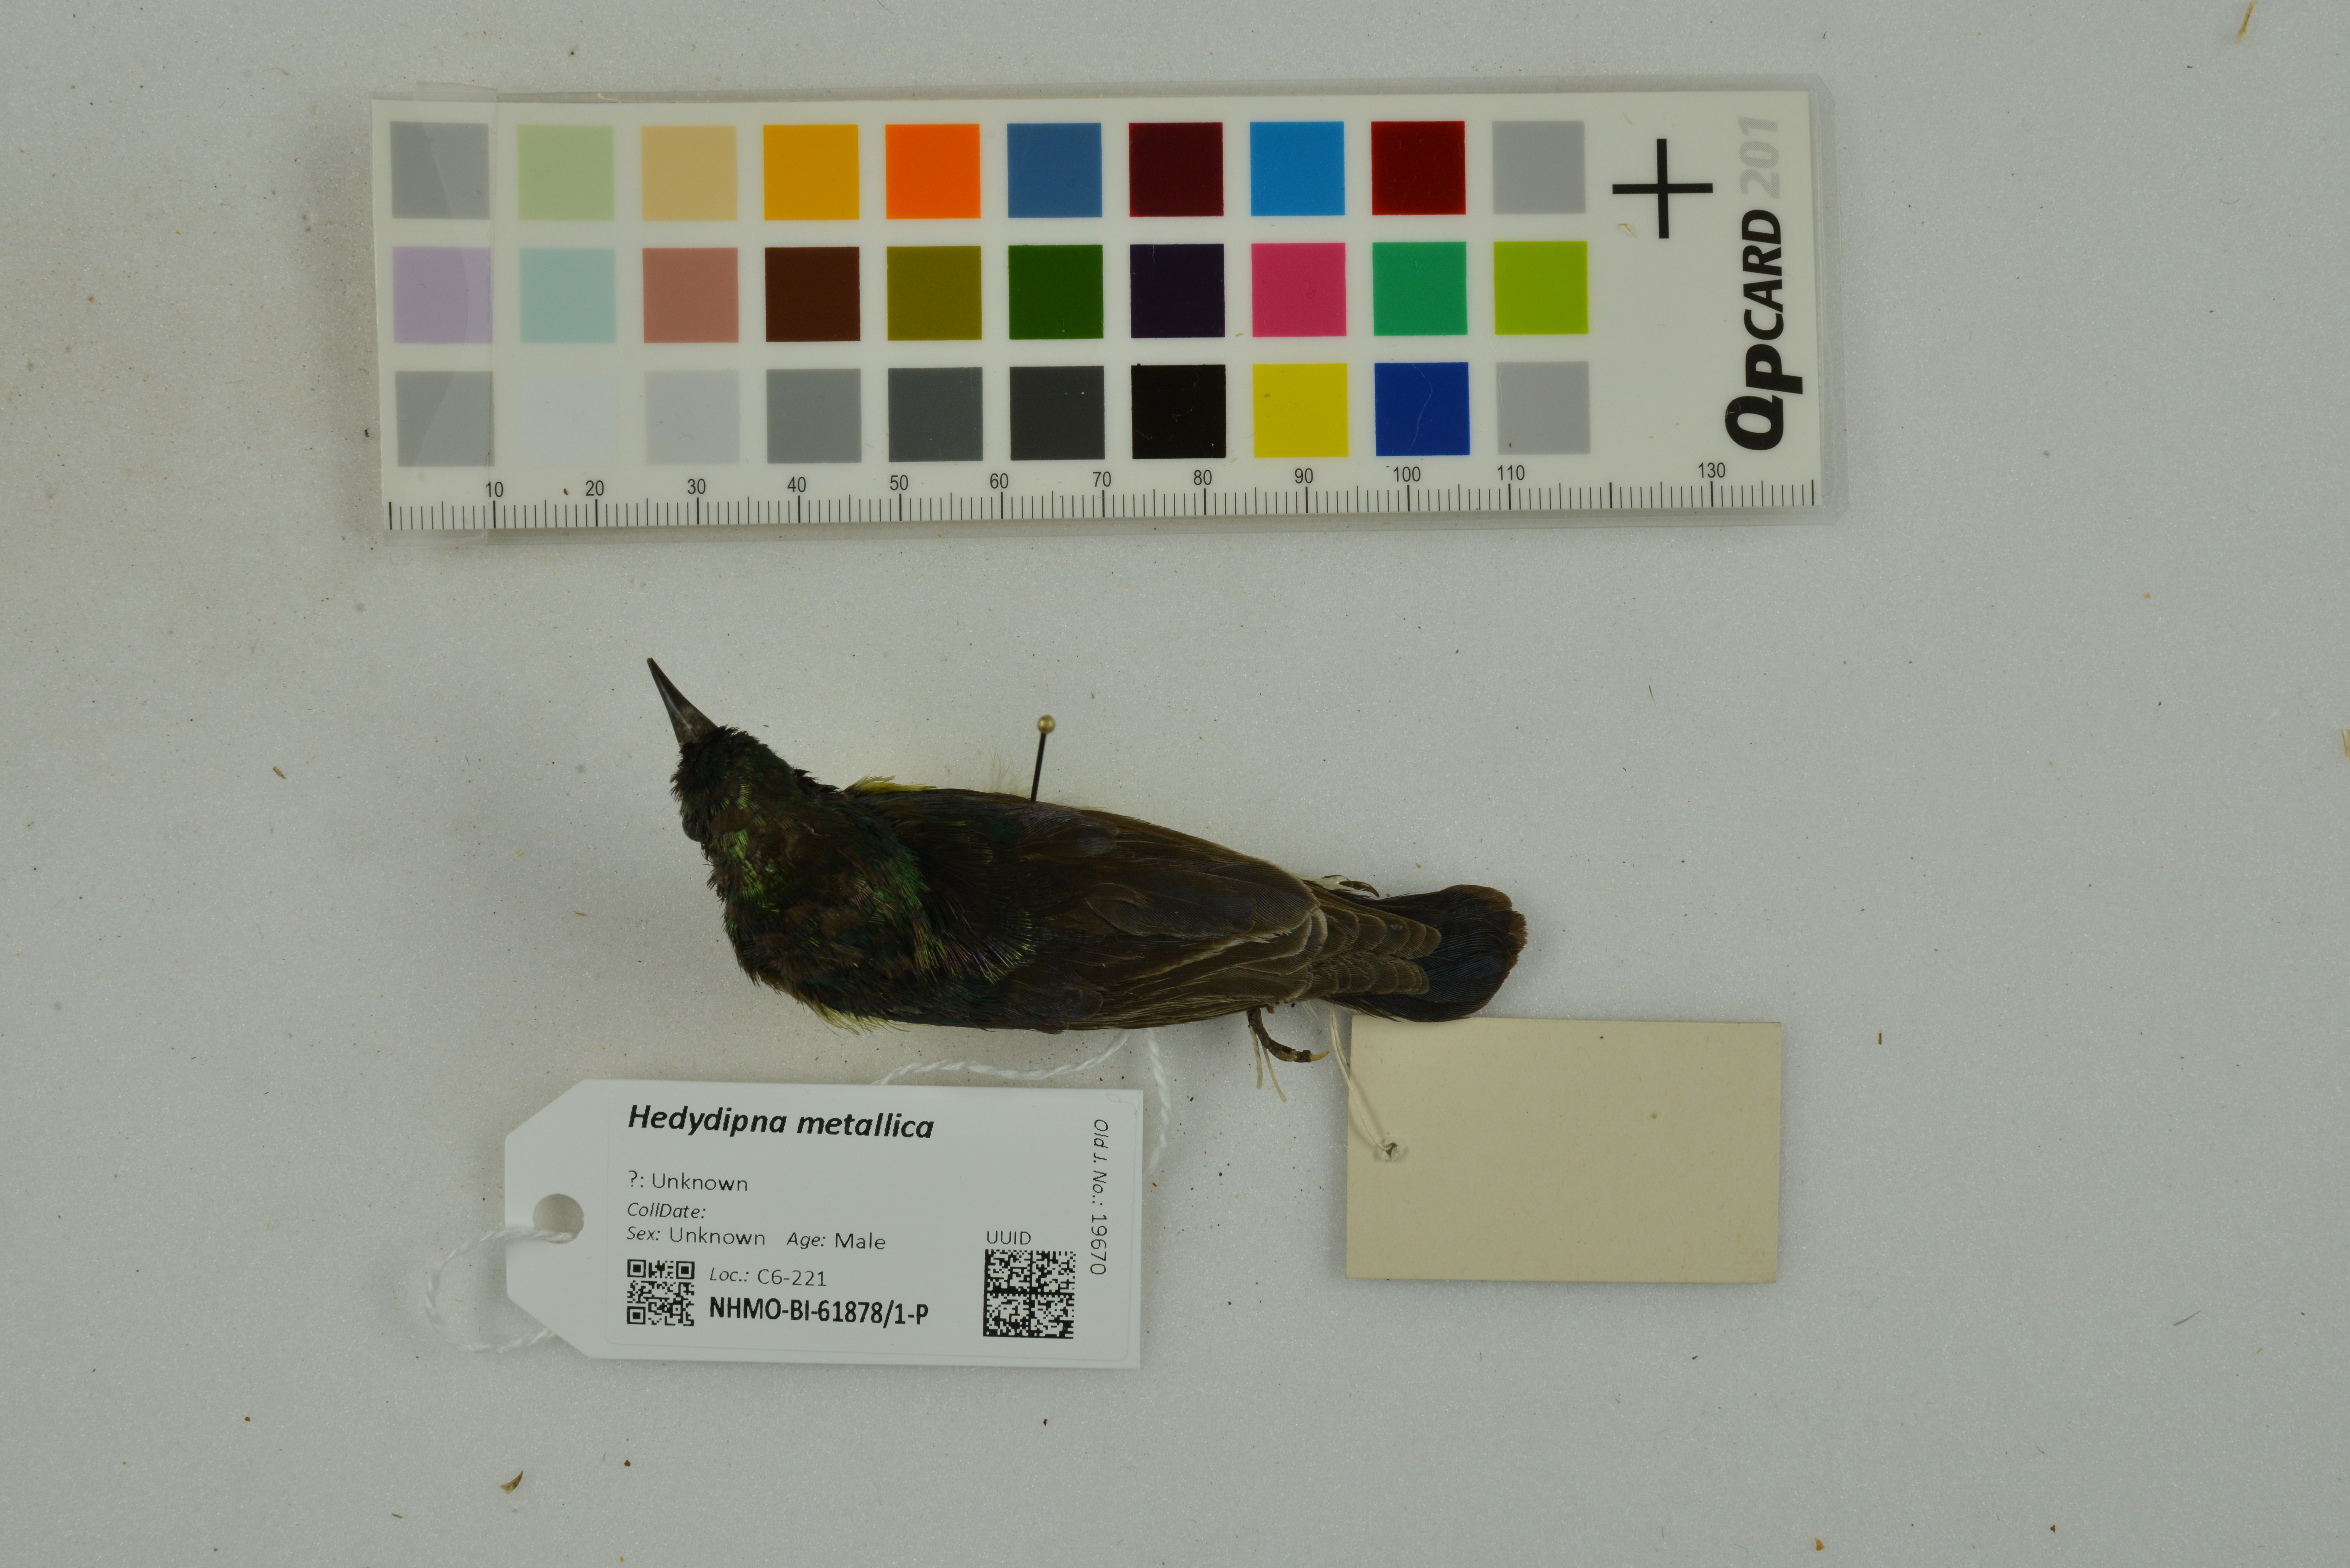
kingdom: Animalia
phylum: Chordata
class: Aves
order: Passeriformes
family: Nectariniidae
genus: Hedydipna
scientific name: Hedydipna metallica
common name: Nile valley sunbird
